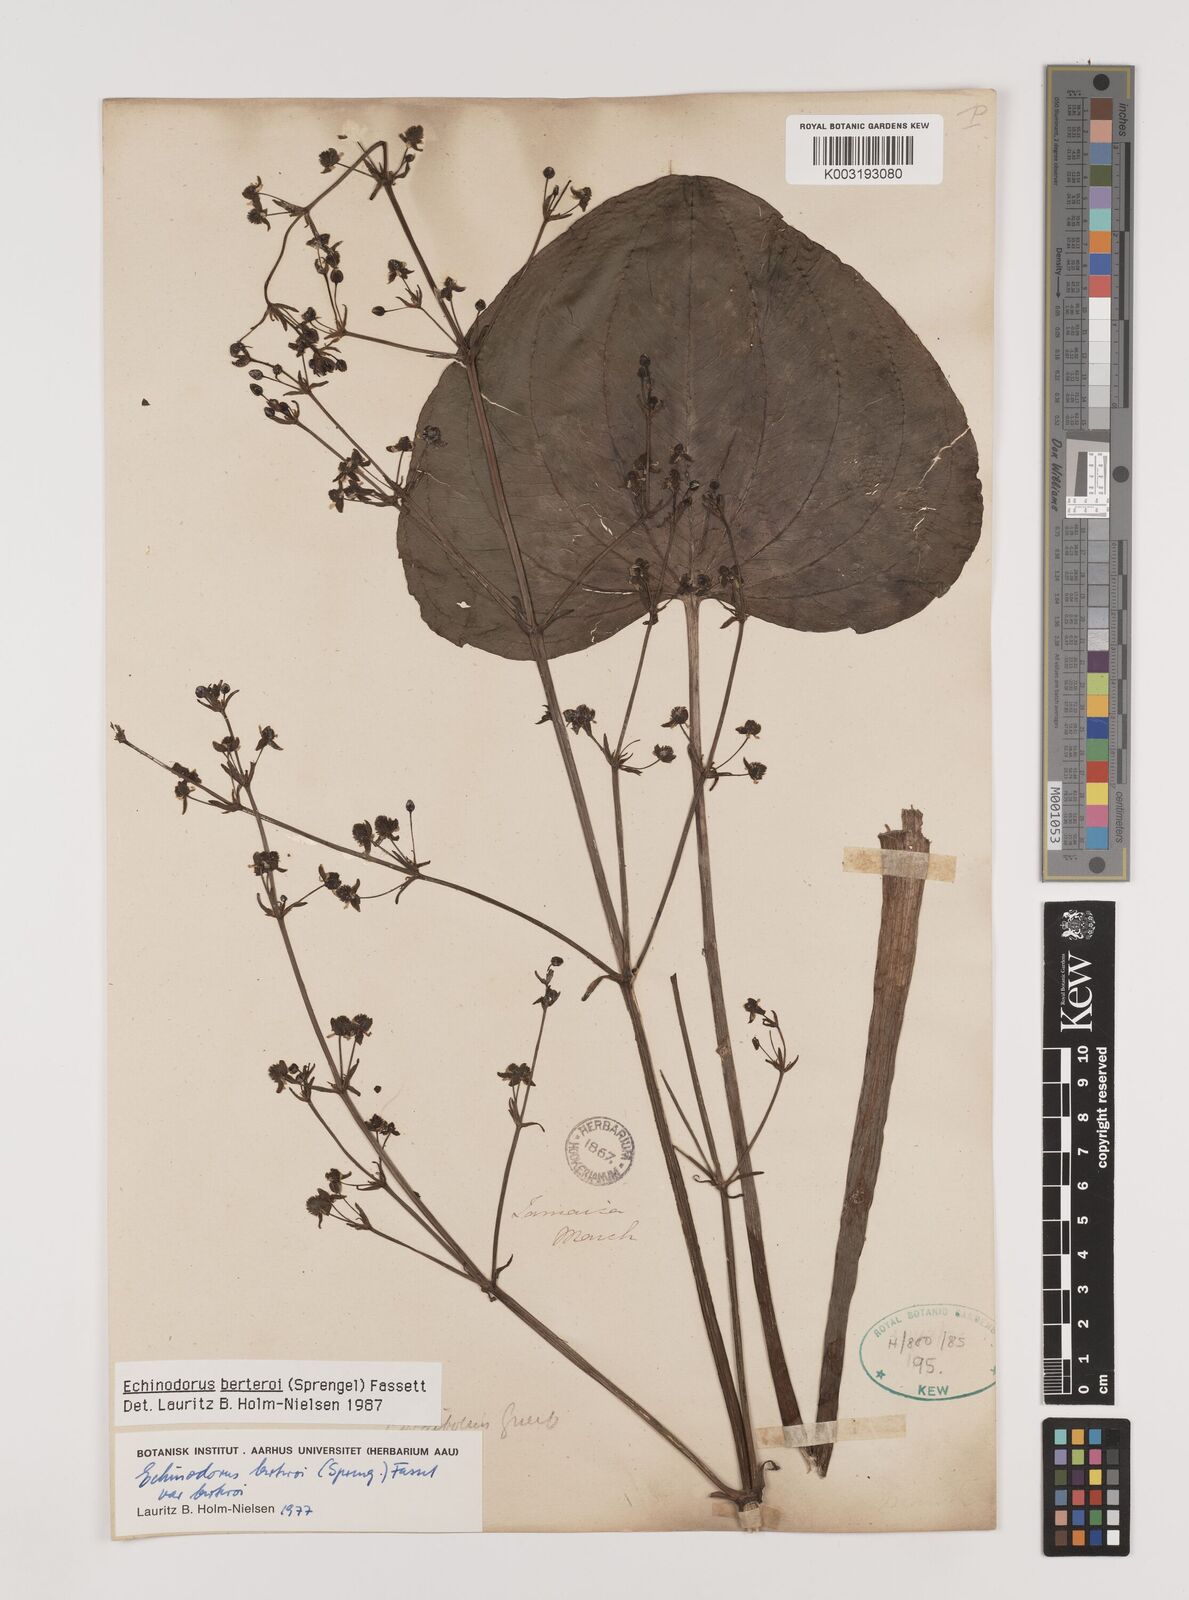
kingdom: Plantae
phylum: Tracheophyta
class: Liliopsida
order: Alismatales
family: Alismataceae
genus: Echinodorus
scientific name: Echinodorus berteroi
